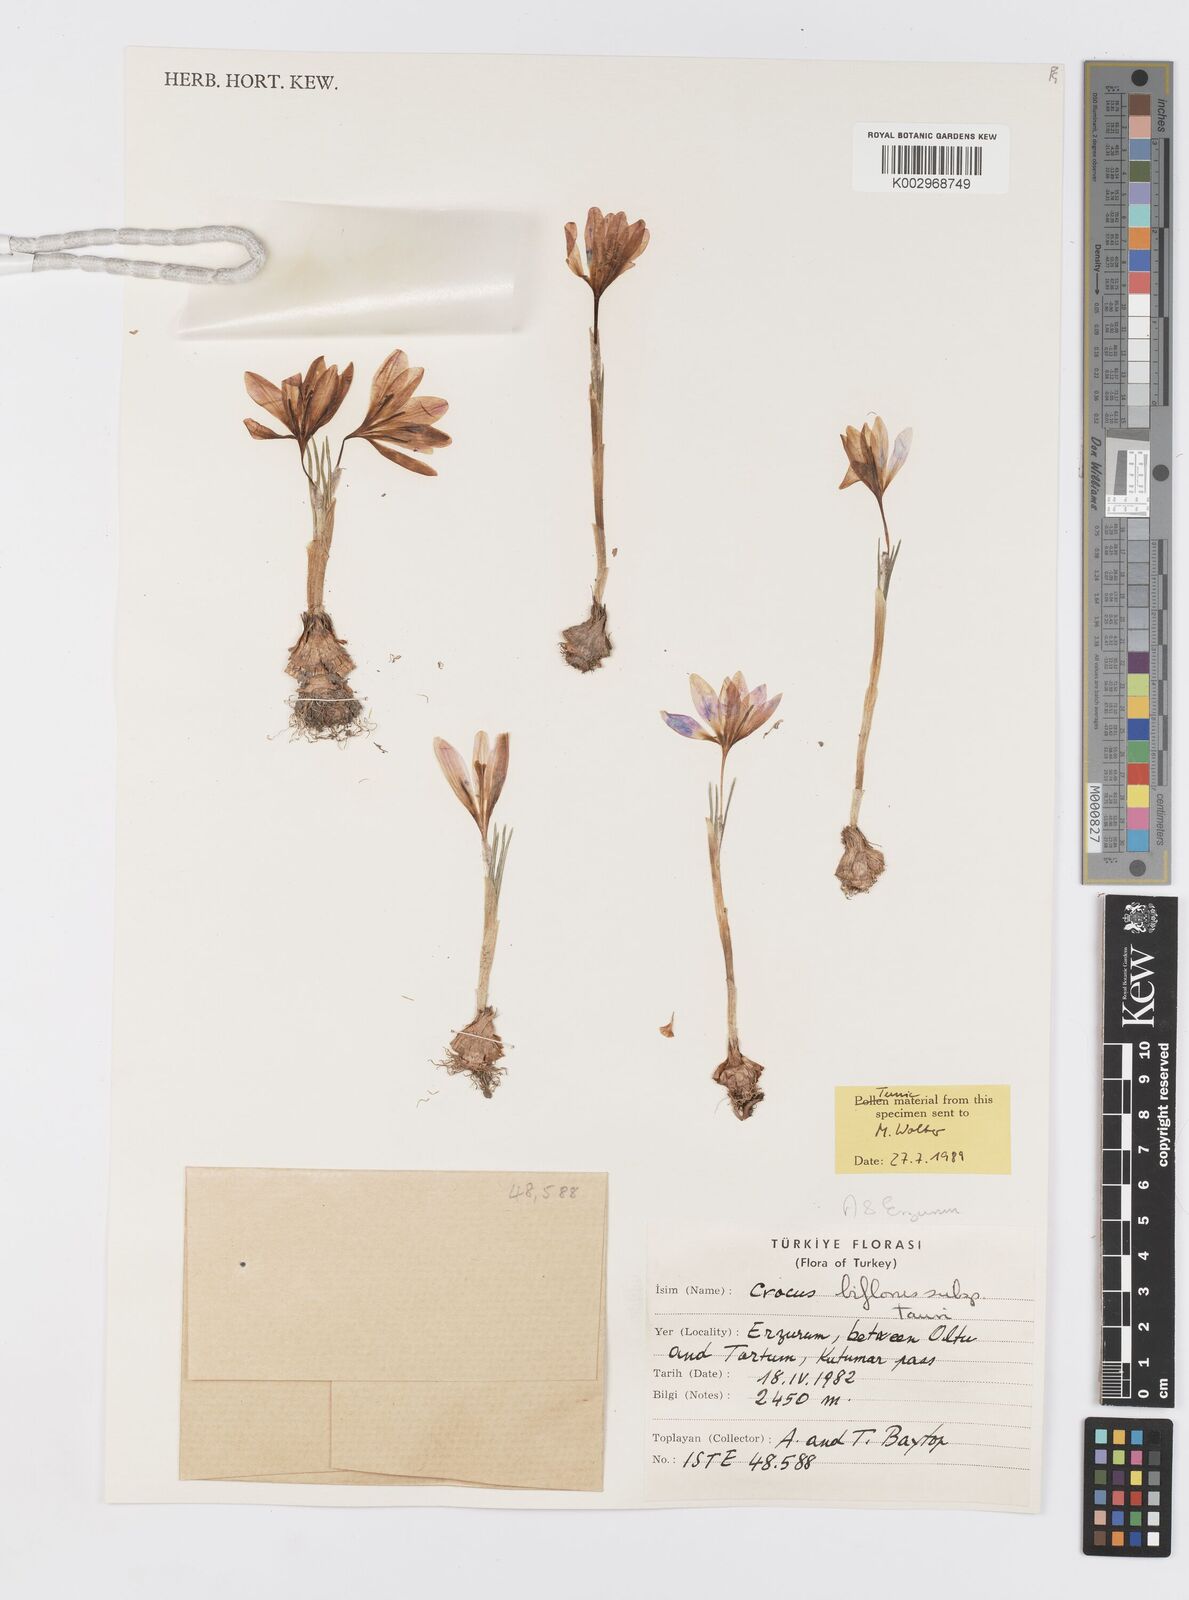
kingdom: Plantae
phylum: Tracheophyta
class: Liliopsida
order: Asparagales
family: Iridaceae
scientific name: Iridaceae
